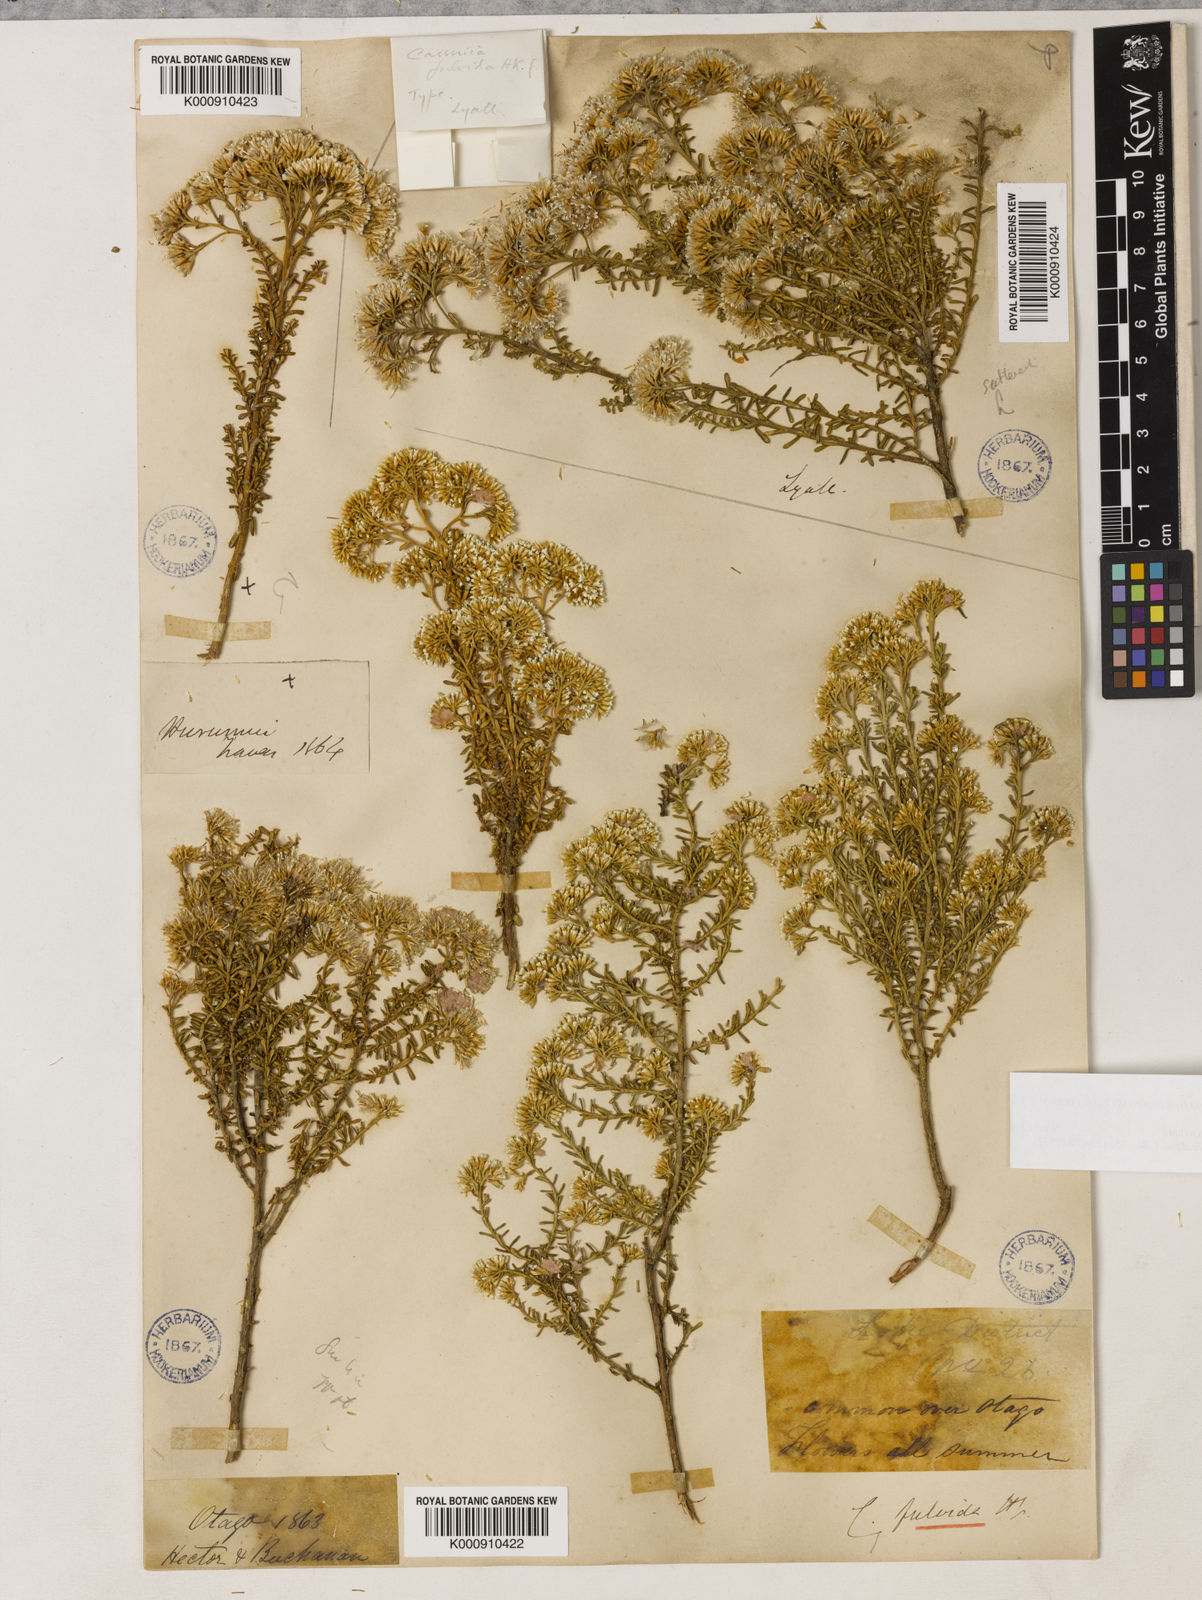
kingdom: Plantae
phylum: Tracheophyta
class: Magnoliopsida
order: Asterales
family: Asteraceae
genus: Ozothamnus
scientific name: Ozothamnus leptophyllus
